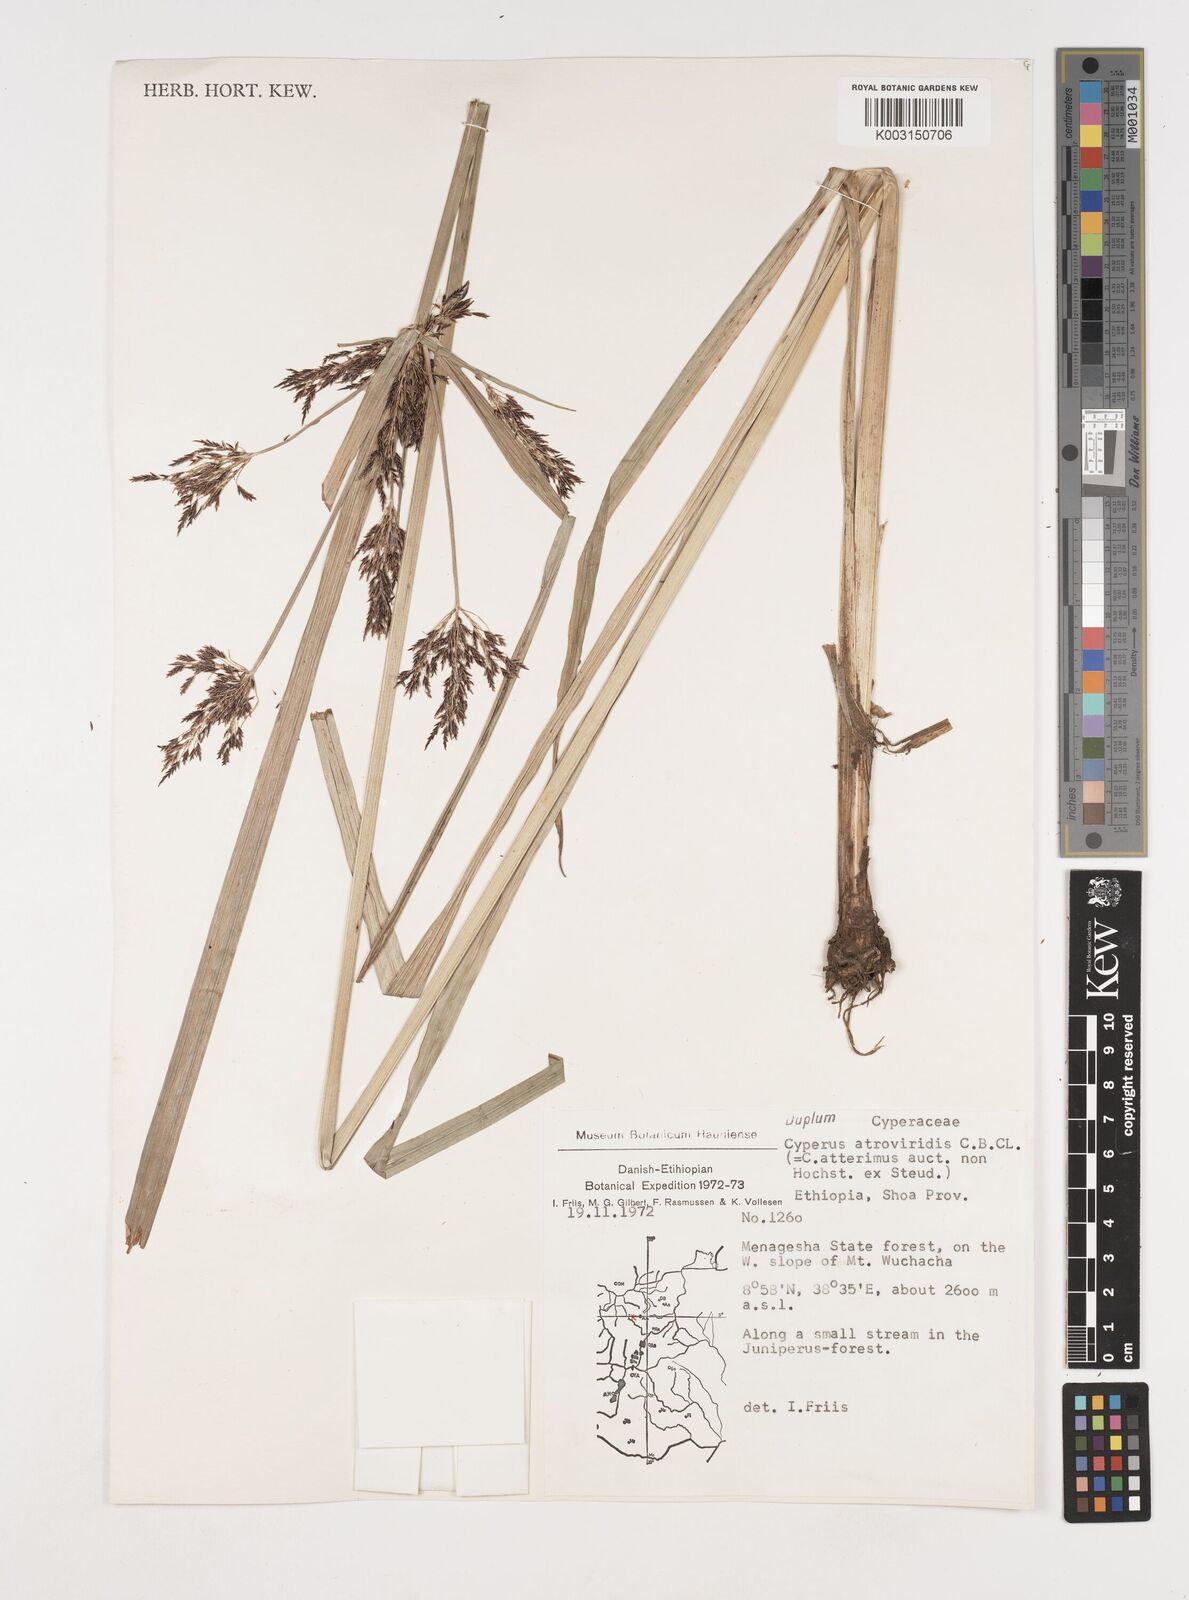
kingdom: Plantae
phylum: Tracheophyta
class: Liliopsida
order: Poales
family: Cyperaceae
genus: Cyperus
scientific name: Cyperus aterrimus
